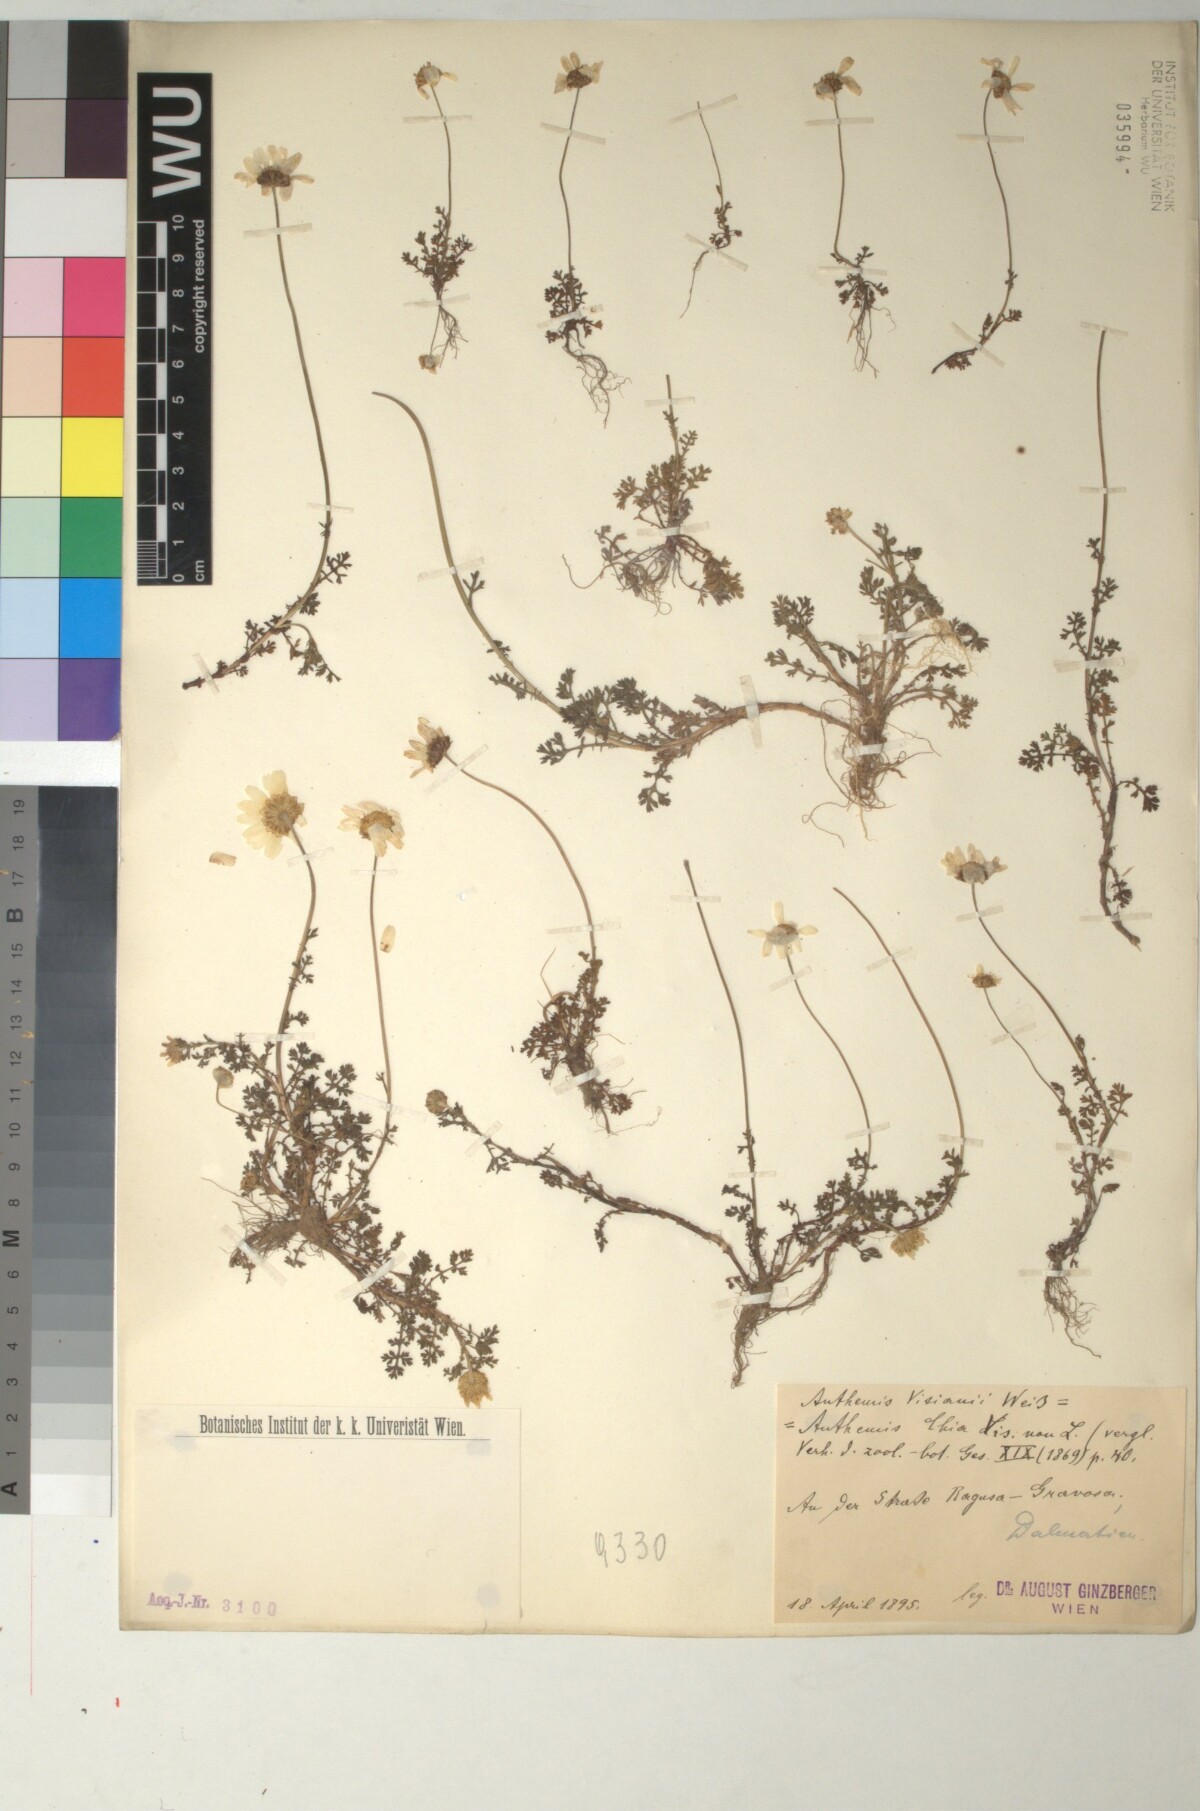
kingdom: Plantae
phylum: Tracheophyta
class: Magnoliopsida
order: Asterales
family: Asteraceae
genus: Anthemis
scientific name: Anthemis chia
